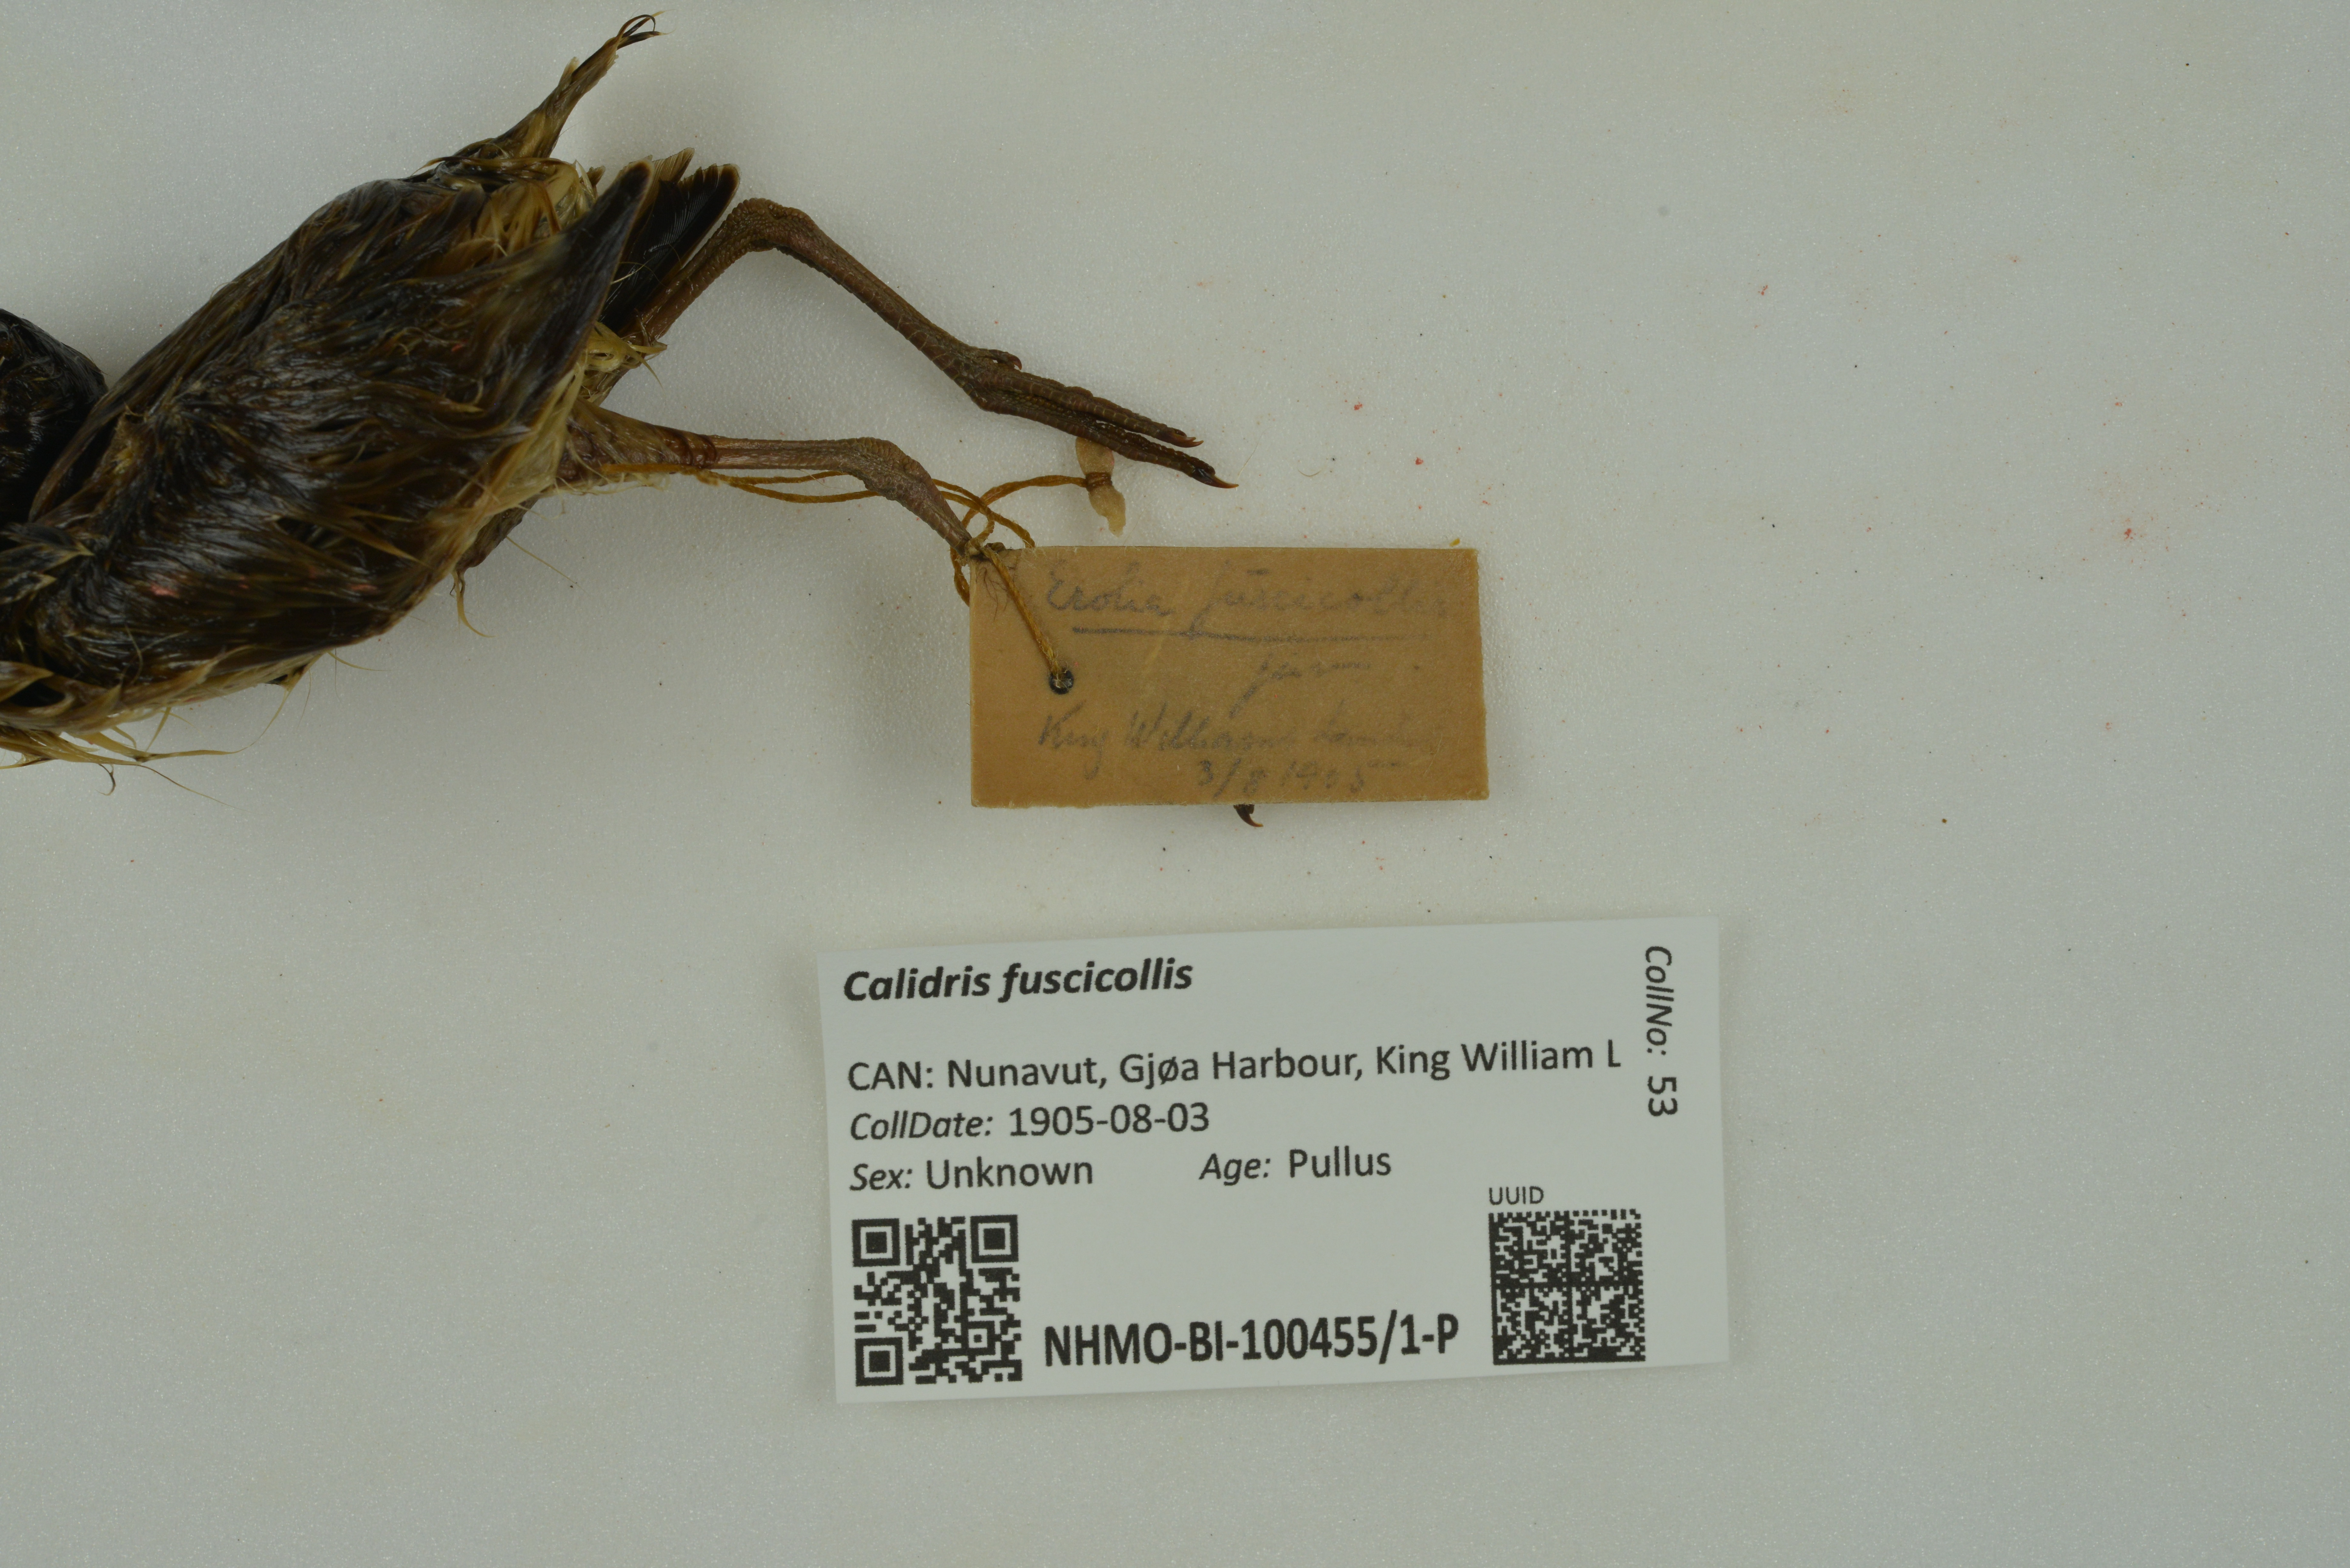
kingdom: Animalia
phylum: Chordata
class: Aves
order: Charadriiformes
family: Scolopacidae
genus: Calidris
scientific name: Calidris fuscicollis
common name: White-rumped sandpiper
